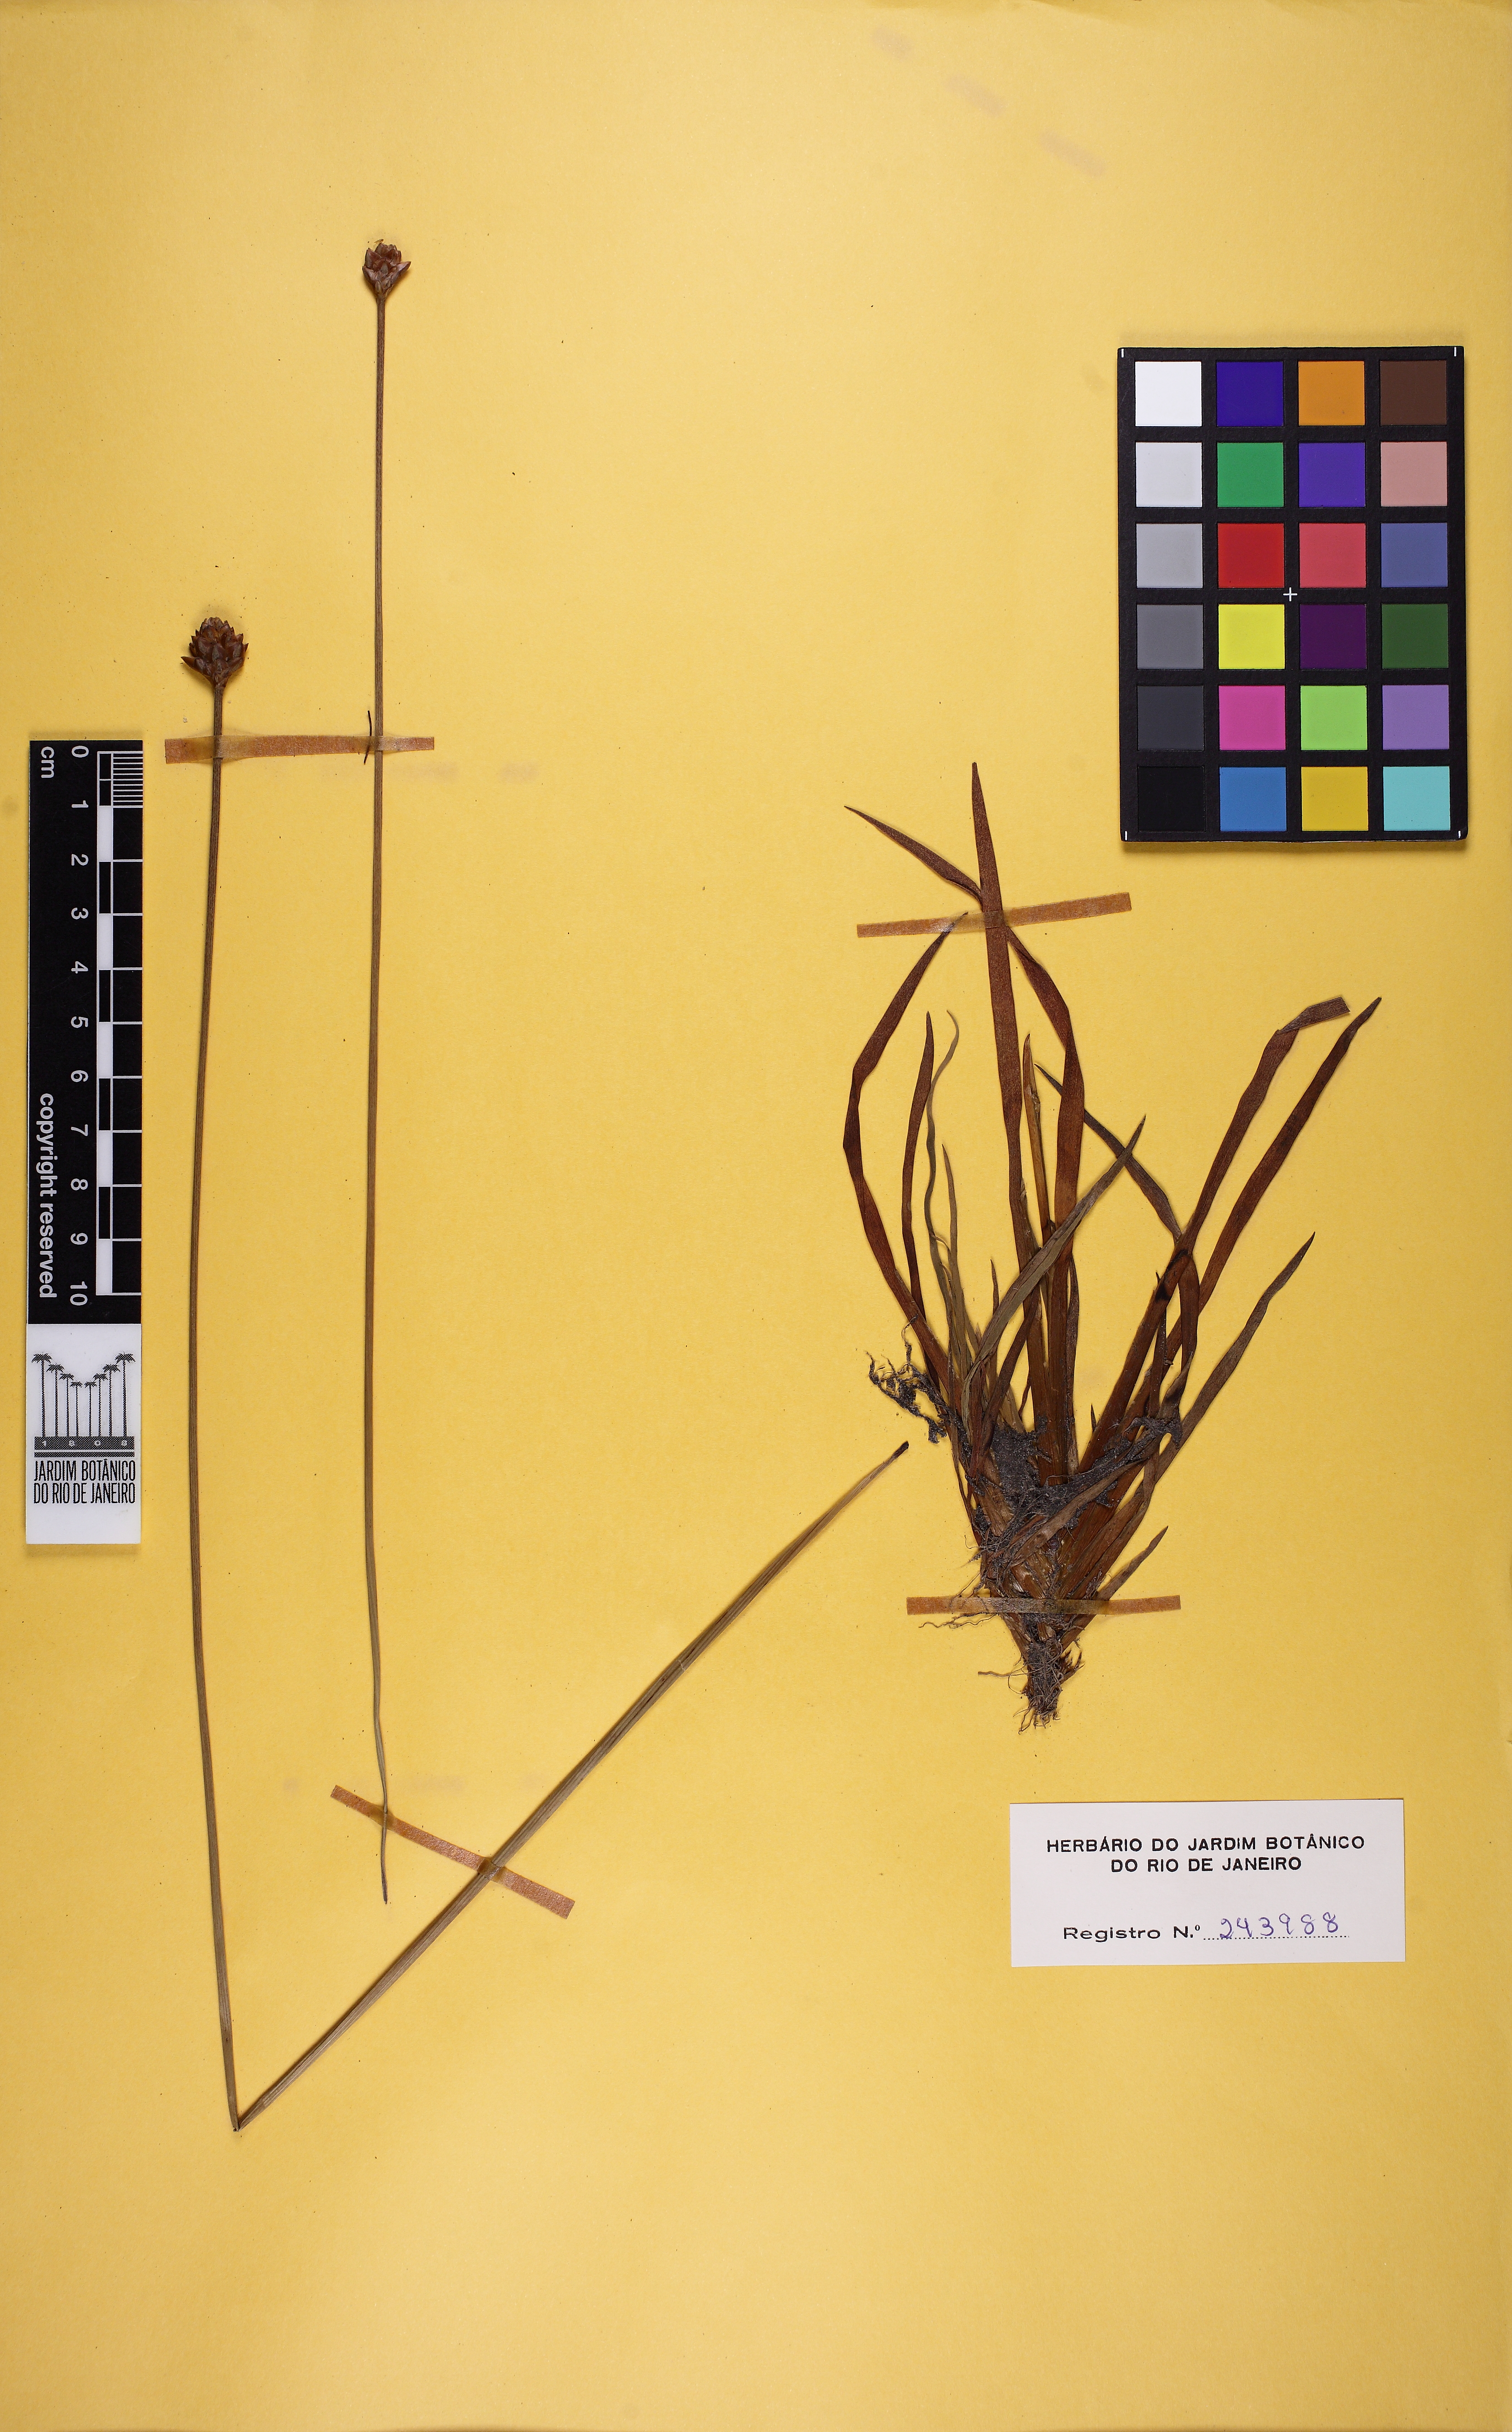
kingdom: Plantae
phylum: Tracheophyta
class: Liliopsida
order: Poales
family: Xyridaceae
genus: Xyris
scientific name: Xyris fallax
